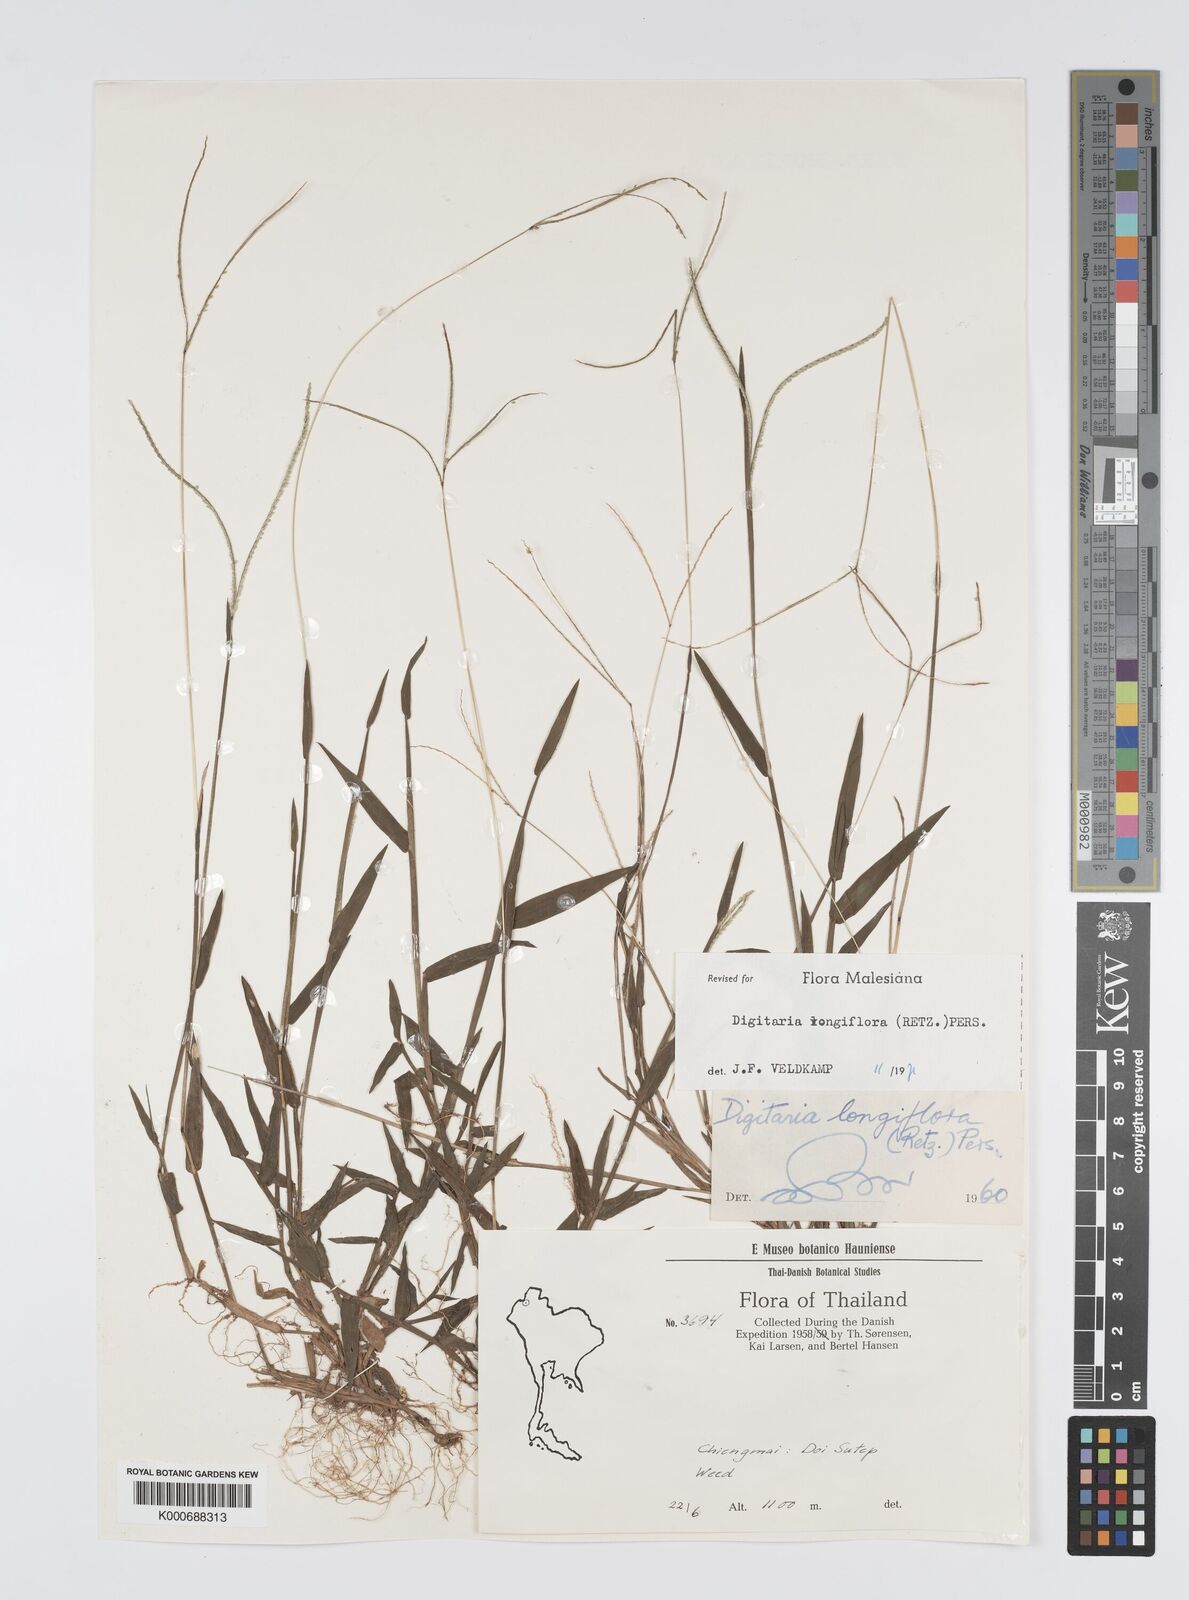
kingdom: Plantae
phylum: Tracheophyta
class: Liliopsida
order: Poales
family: Poaceae
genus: Digitaria
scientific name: Digitaria longiflora
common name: Wire crabgrass
